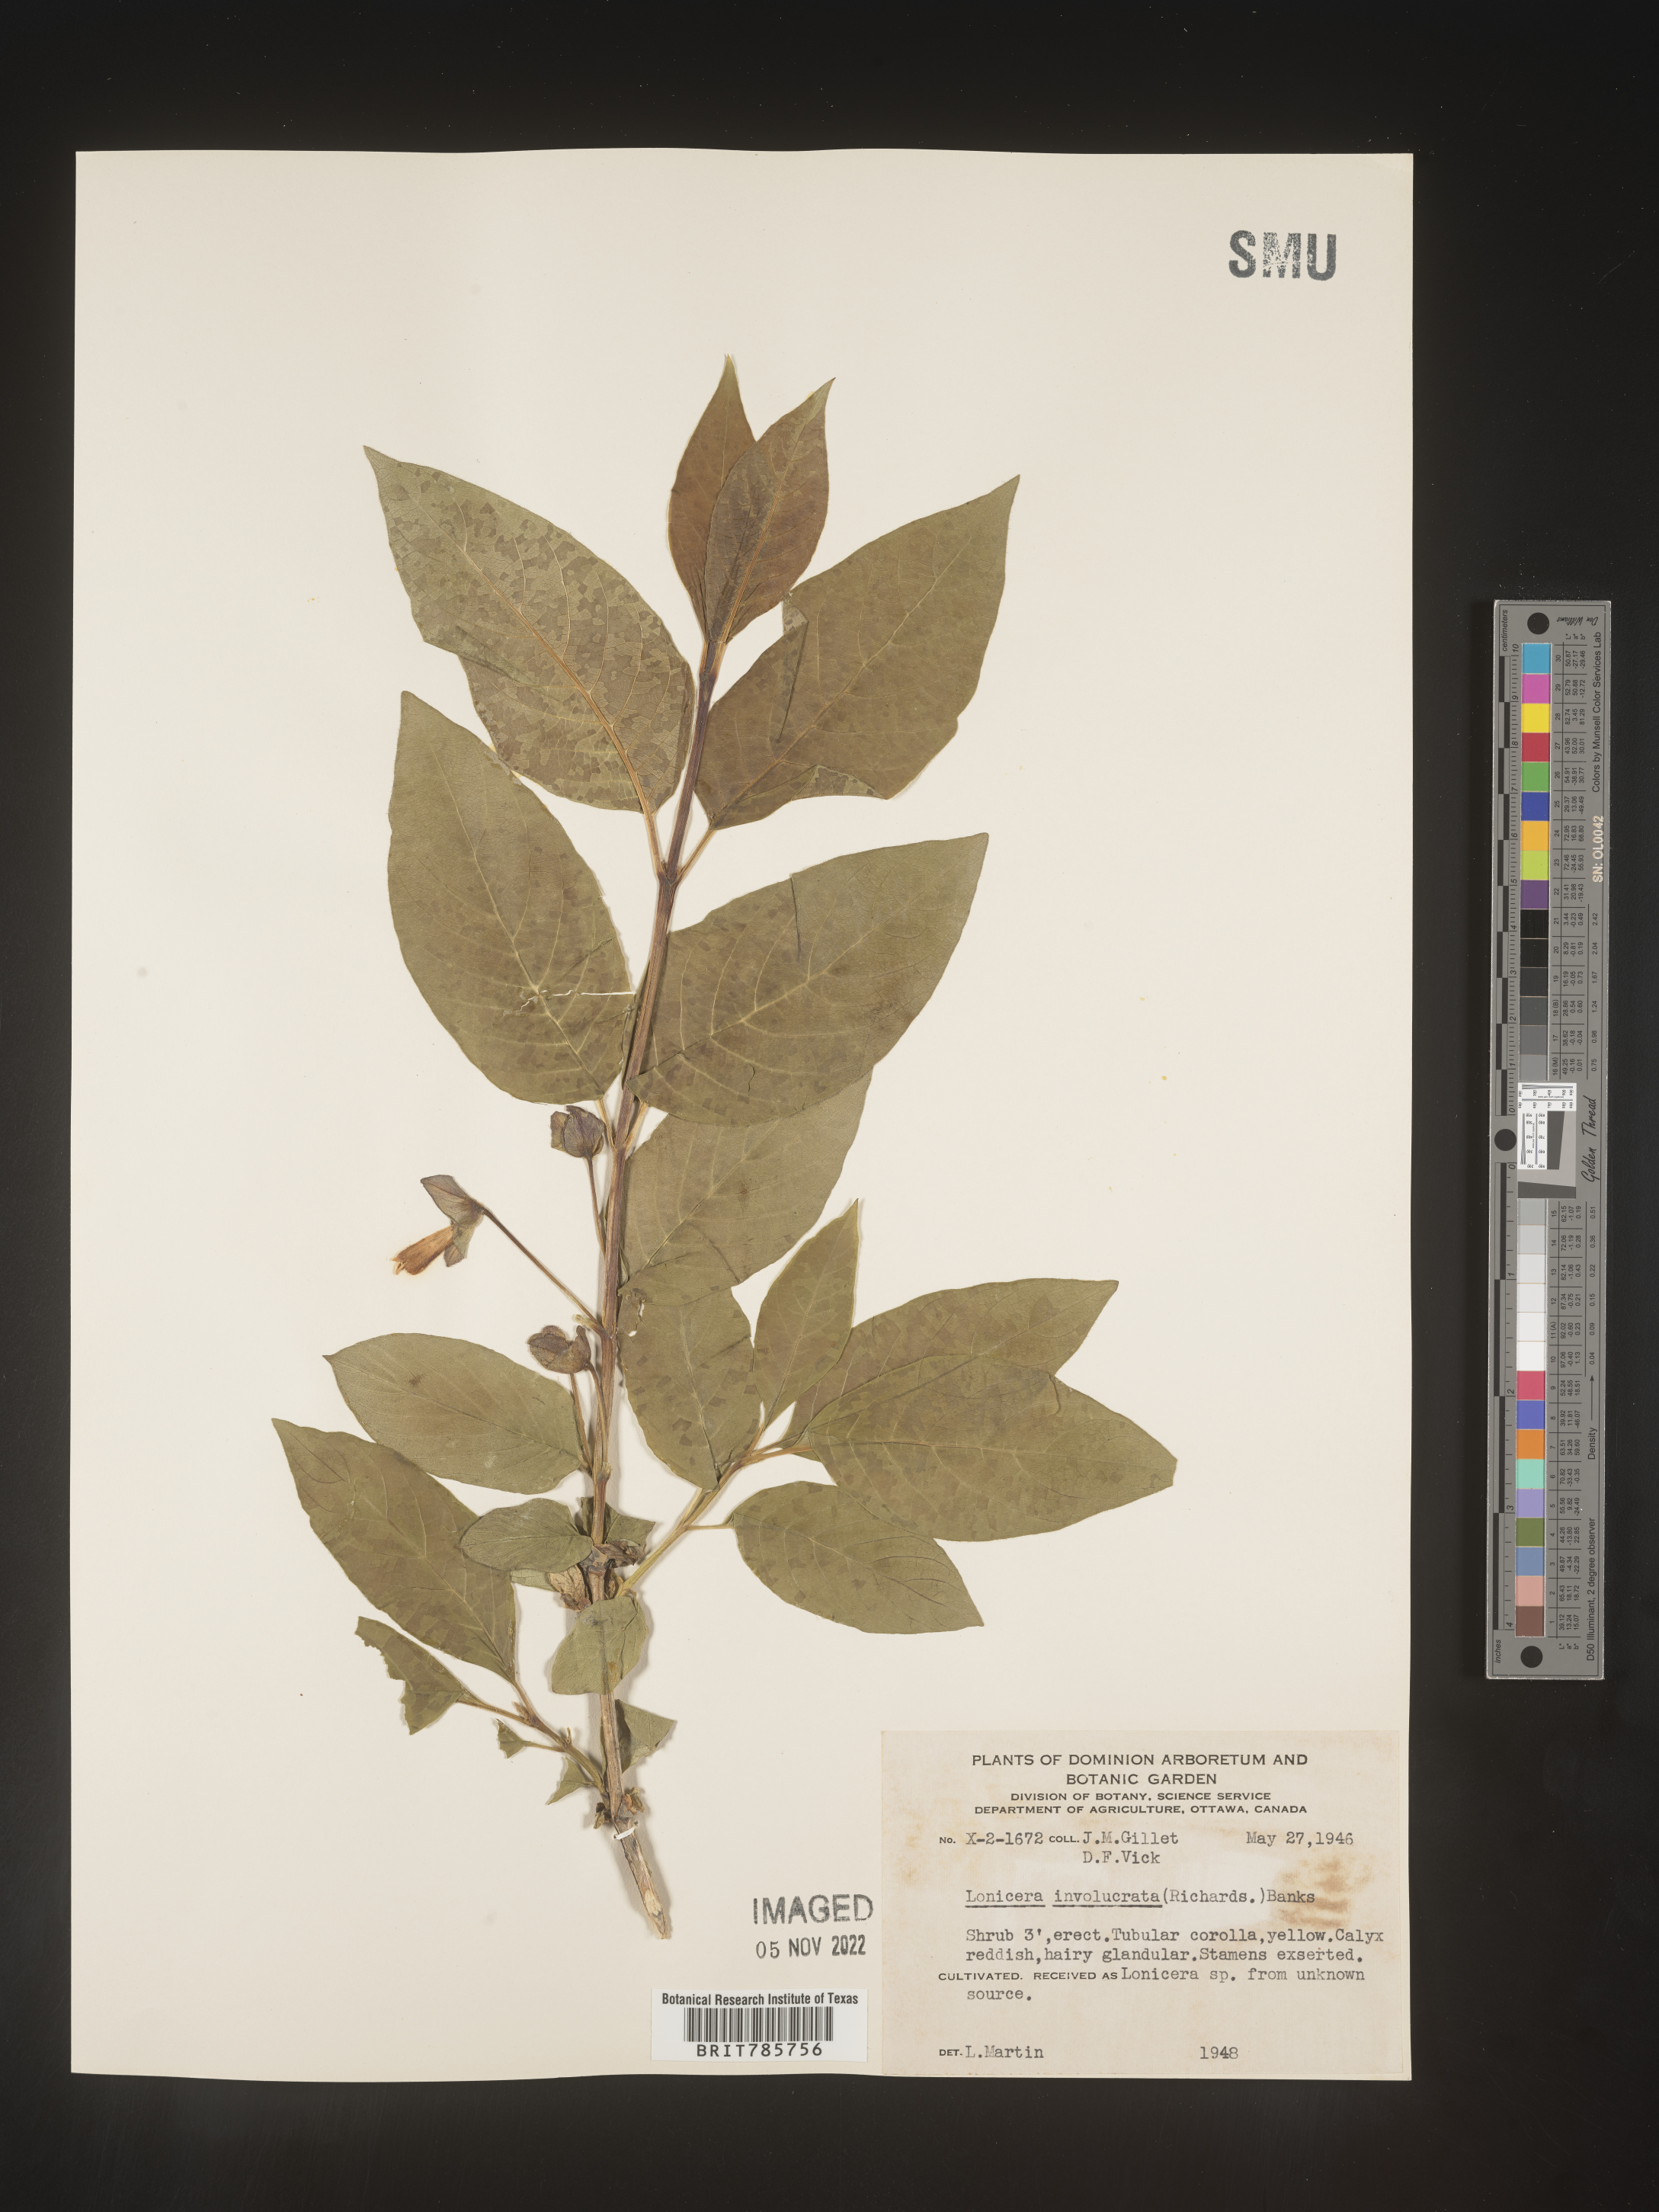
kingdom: Plantae
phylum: Tracheophyta
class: Magnoliopsida
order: Dipsacales
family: Caprifoliaceae
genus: Lonicera
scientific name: Lonicera
